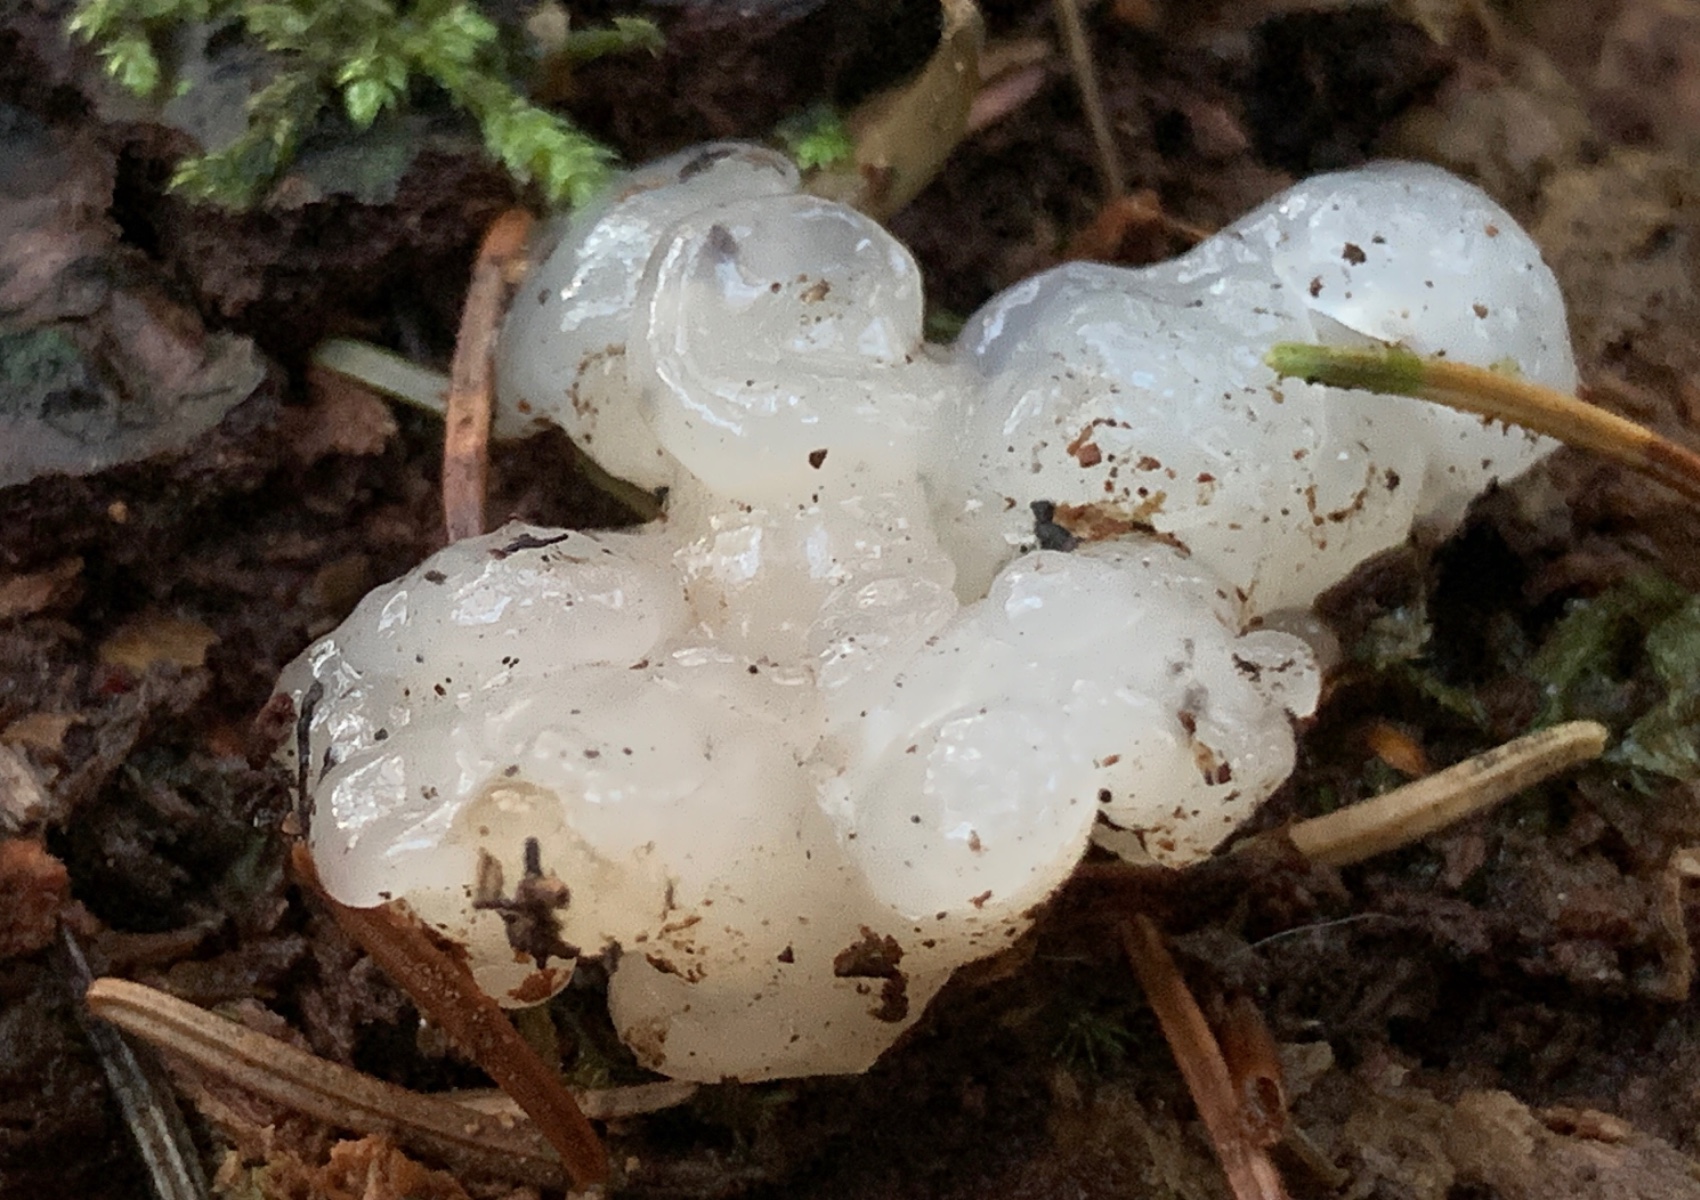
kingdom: Fungi
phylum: Basidiomycota
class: Agaricomycetes
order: Auriculariales
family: Hyaloriaceae
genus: Myxarium
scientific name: Myxarium nucleatum
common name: klar bævretop
